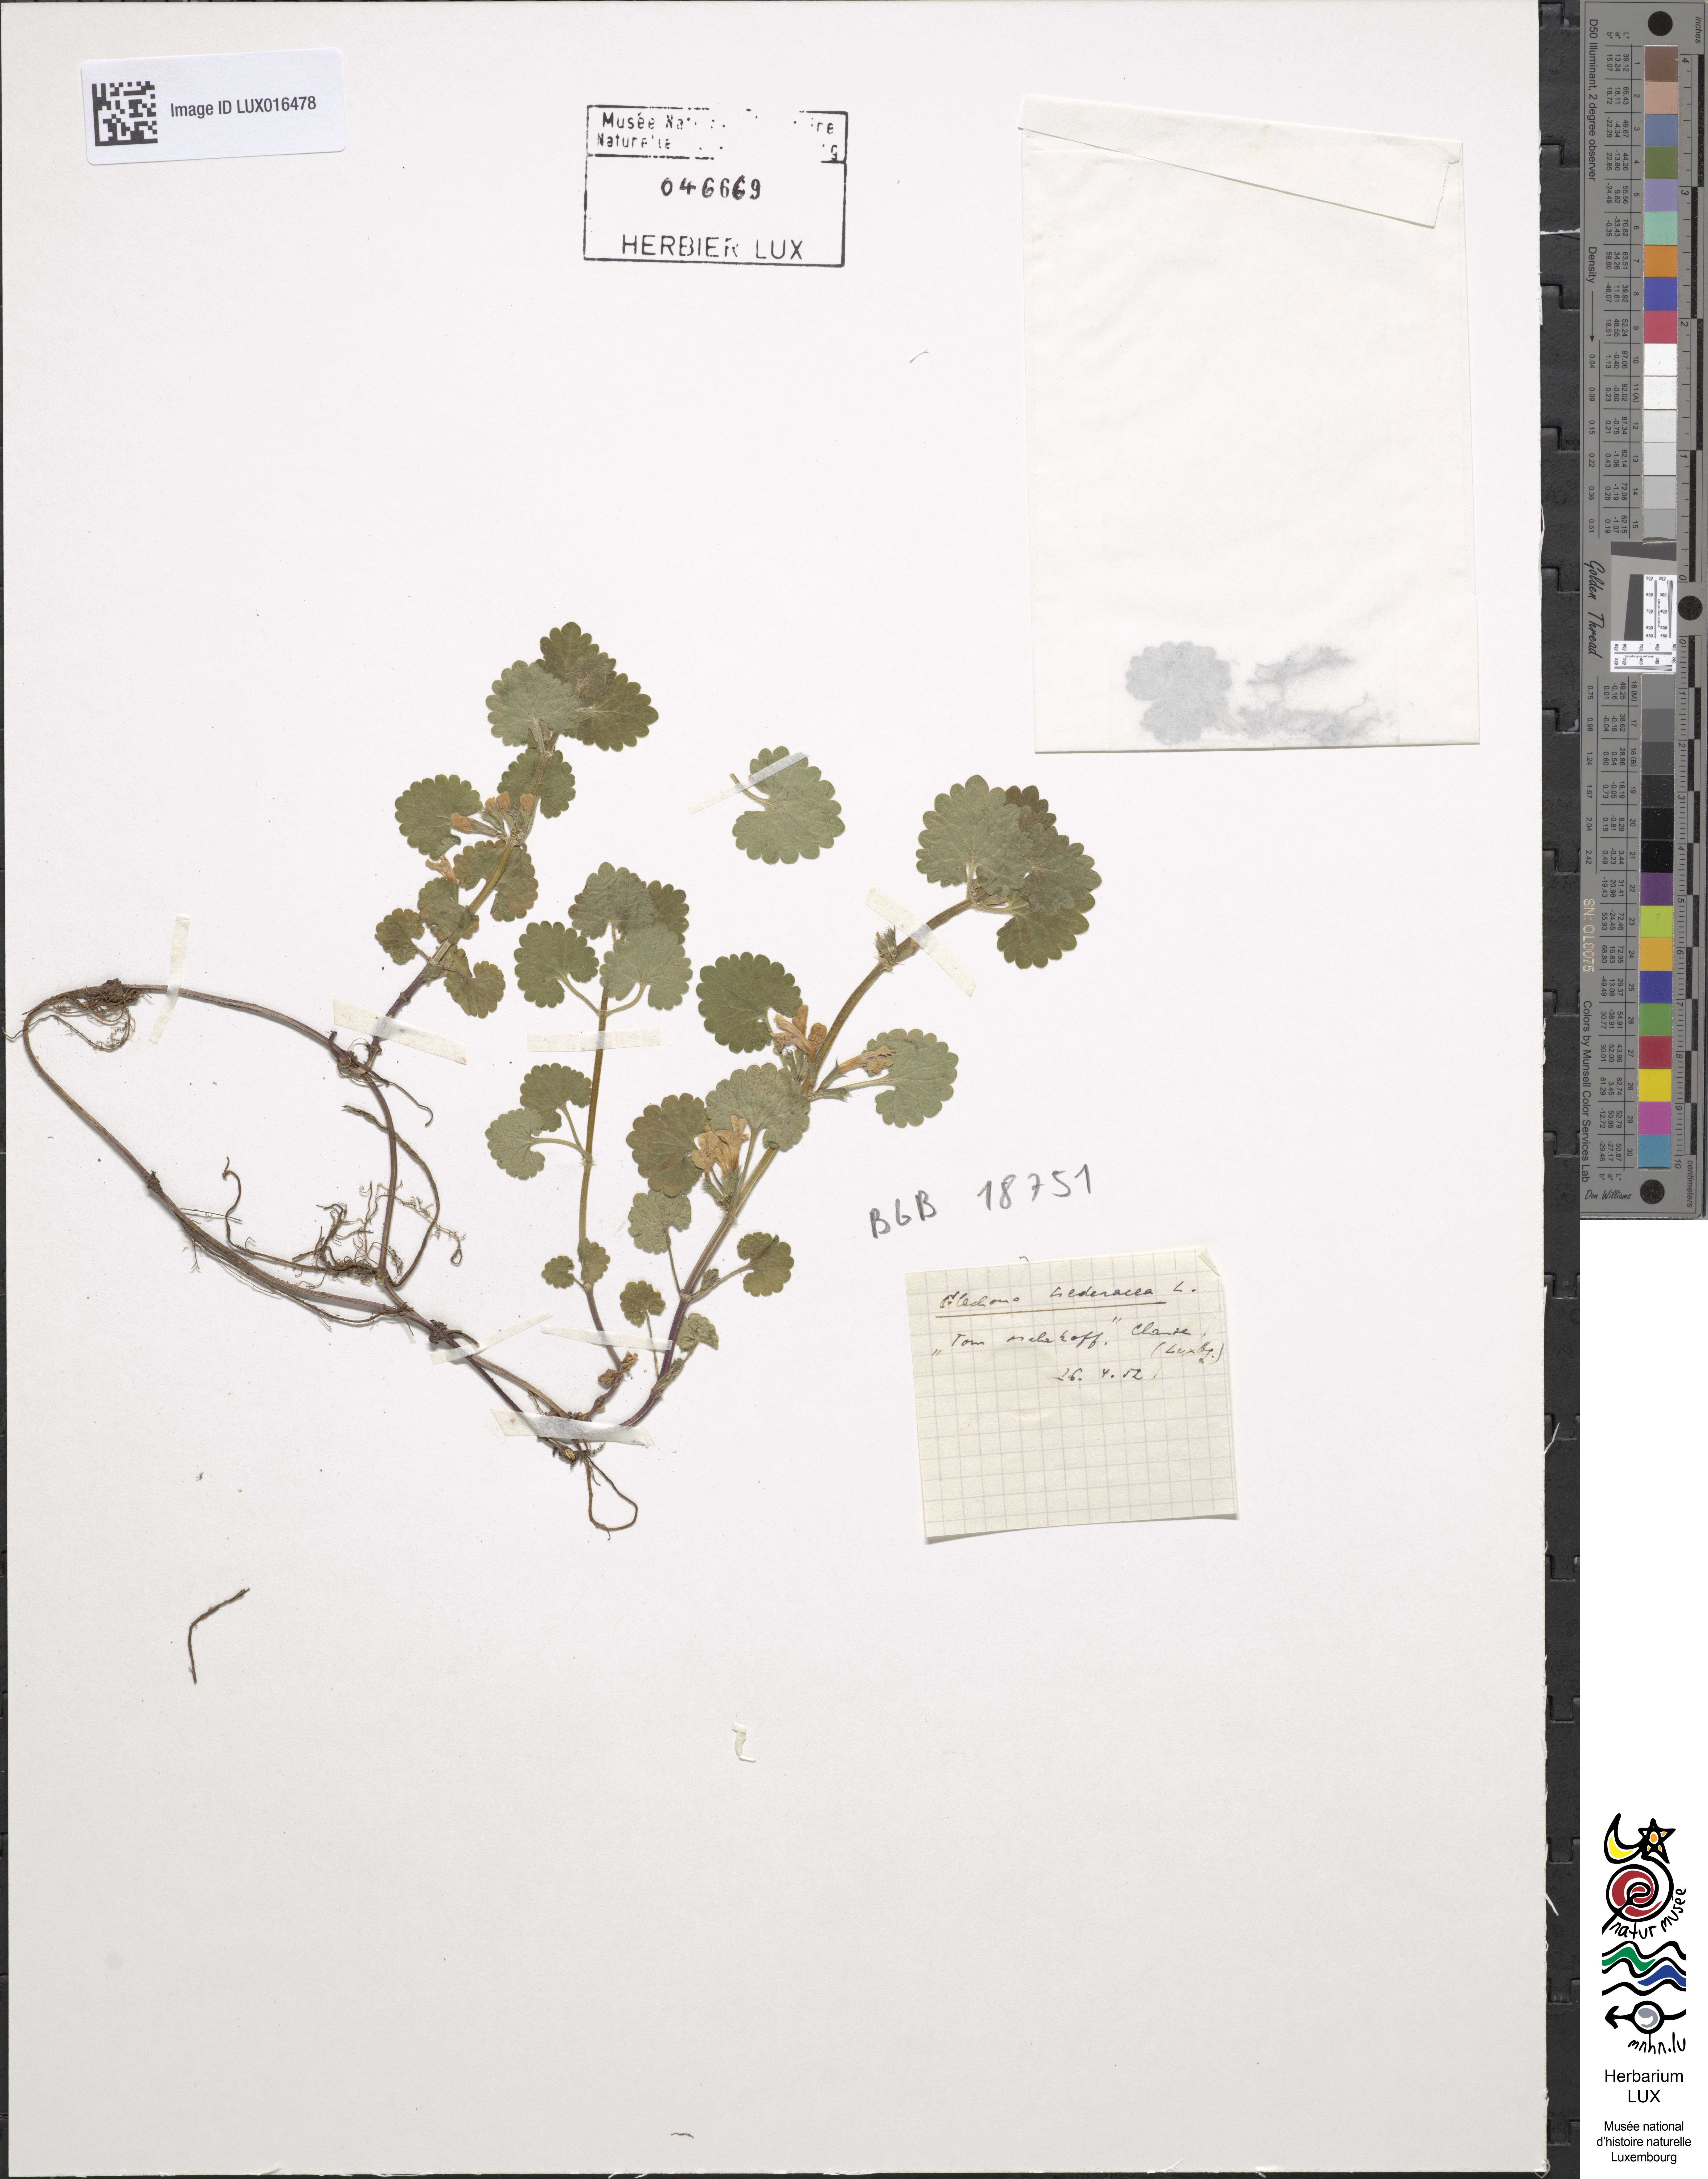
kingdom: Plantae
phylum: Tracheophyta
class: Magnoliopsida
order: Lamiales
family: Lamiaceae
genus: Glechoma
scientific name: Glechoma hederacea
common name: Ground ivy
